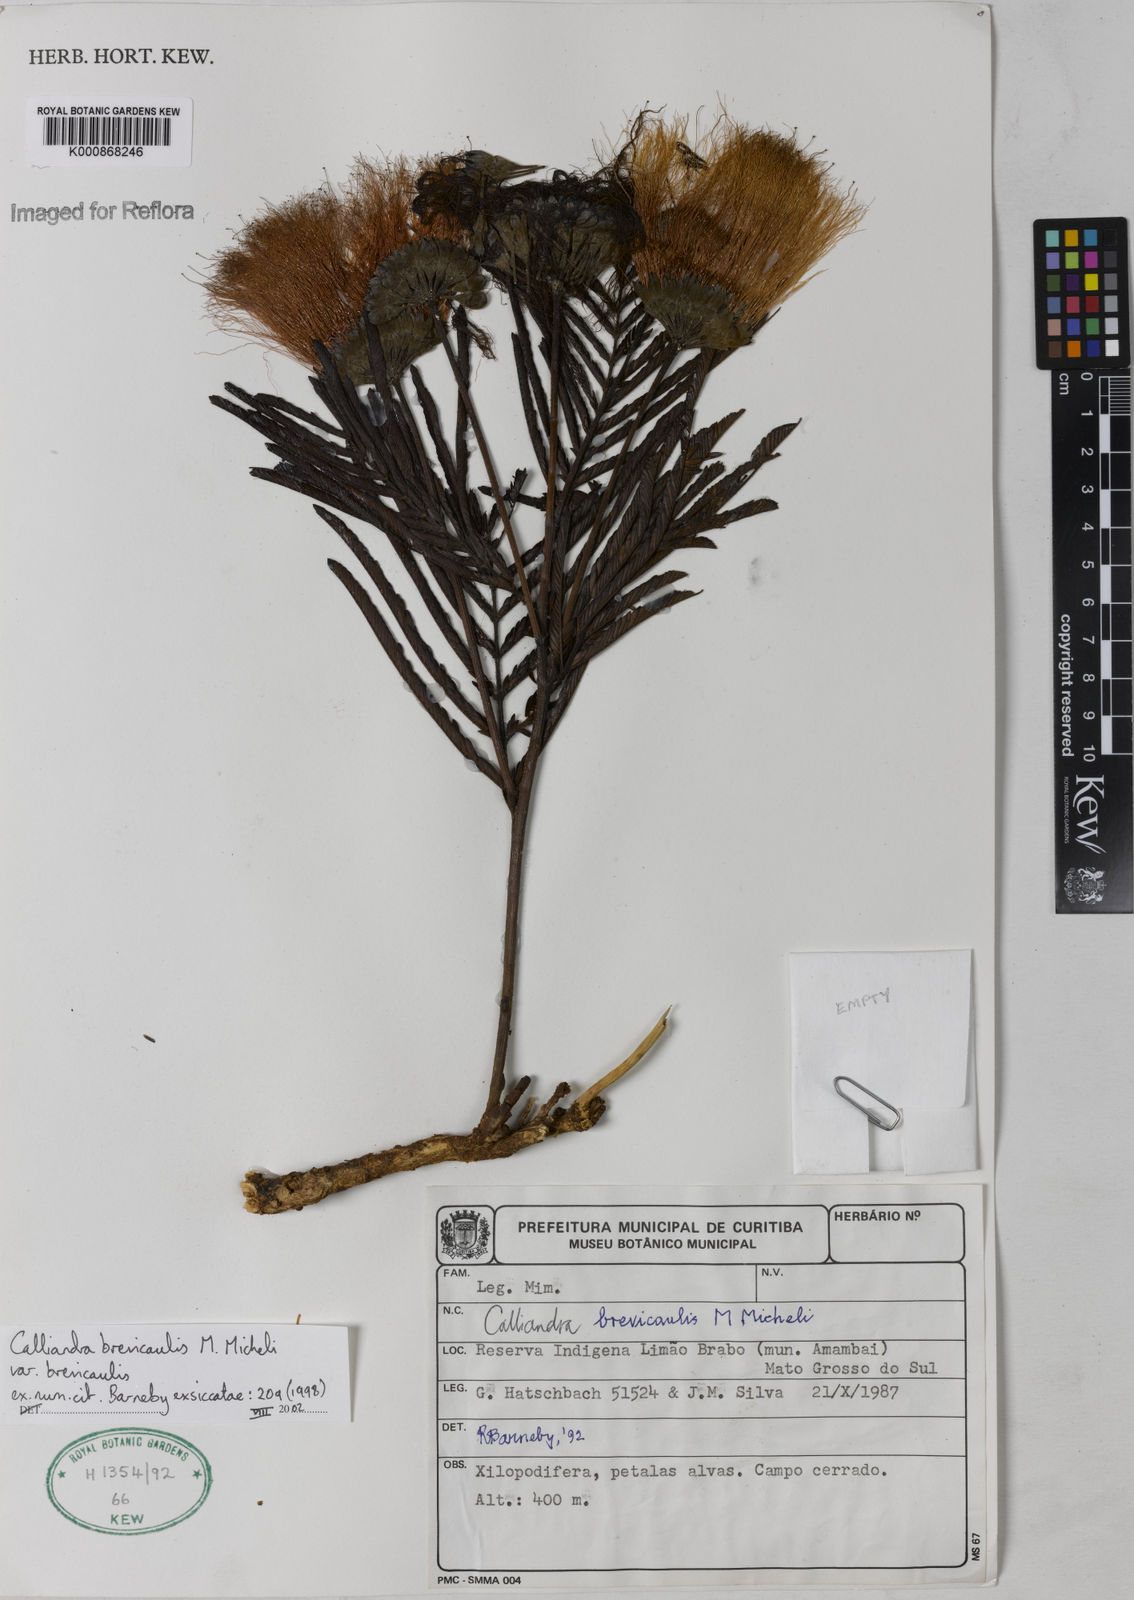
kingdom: Plantae
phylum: Tracheophyta
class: Magnoliopsida
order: Fabales
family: Fabaceae
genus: Calliandra
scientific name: Calliandra brevicaulis
